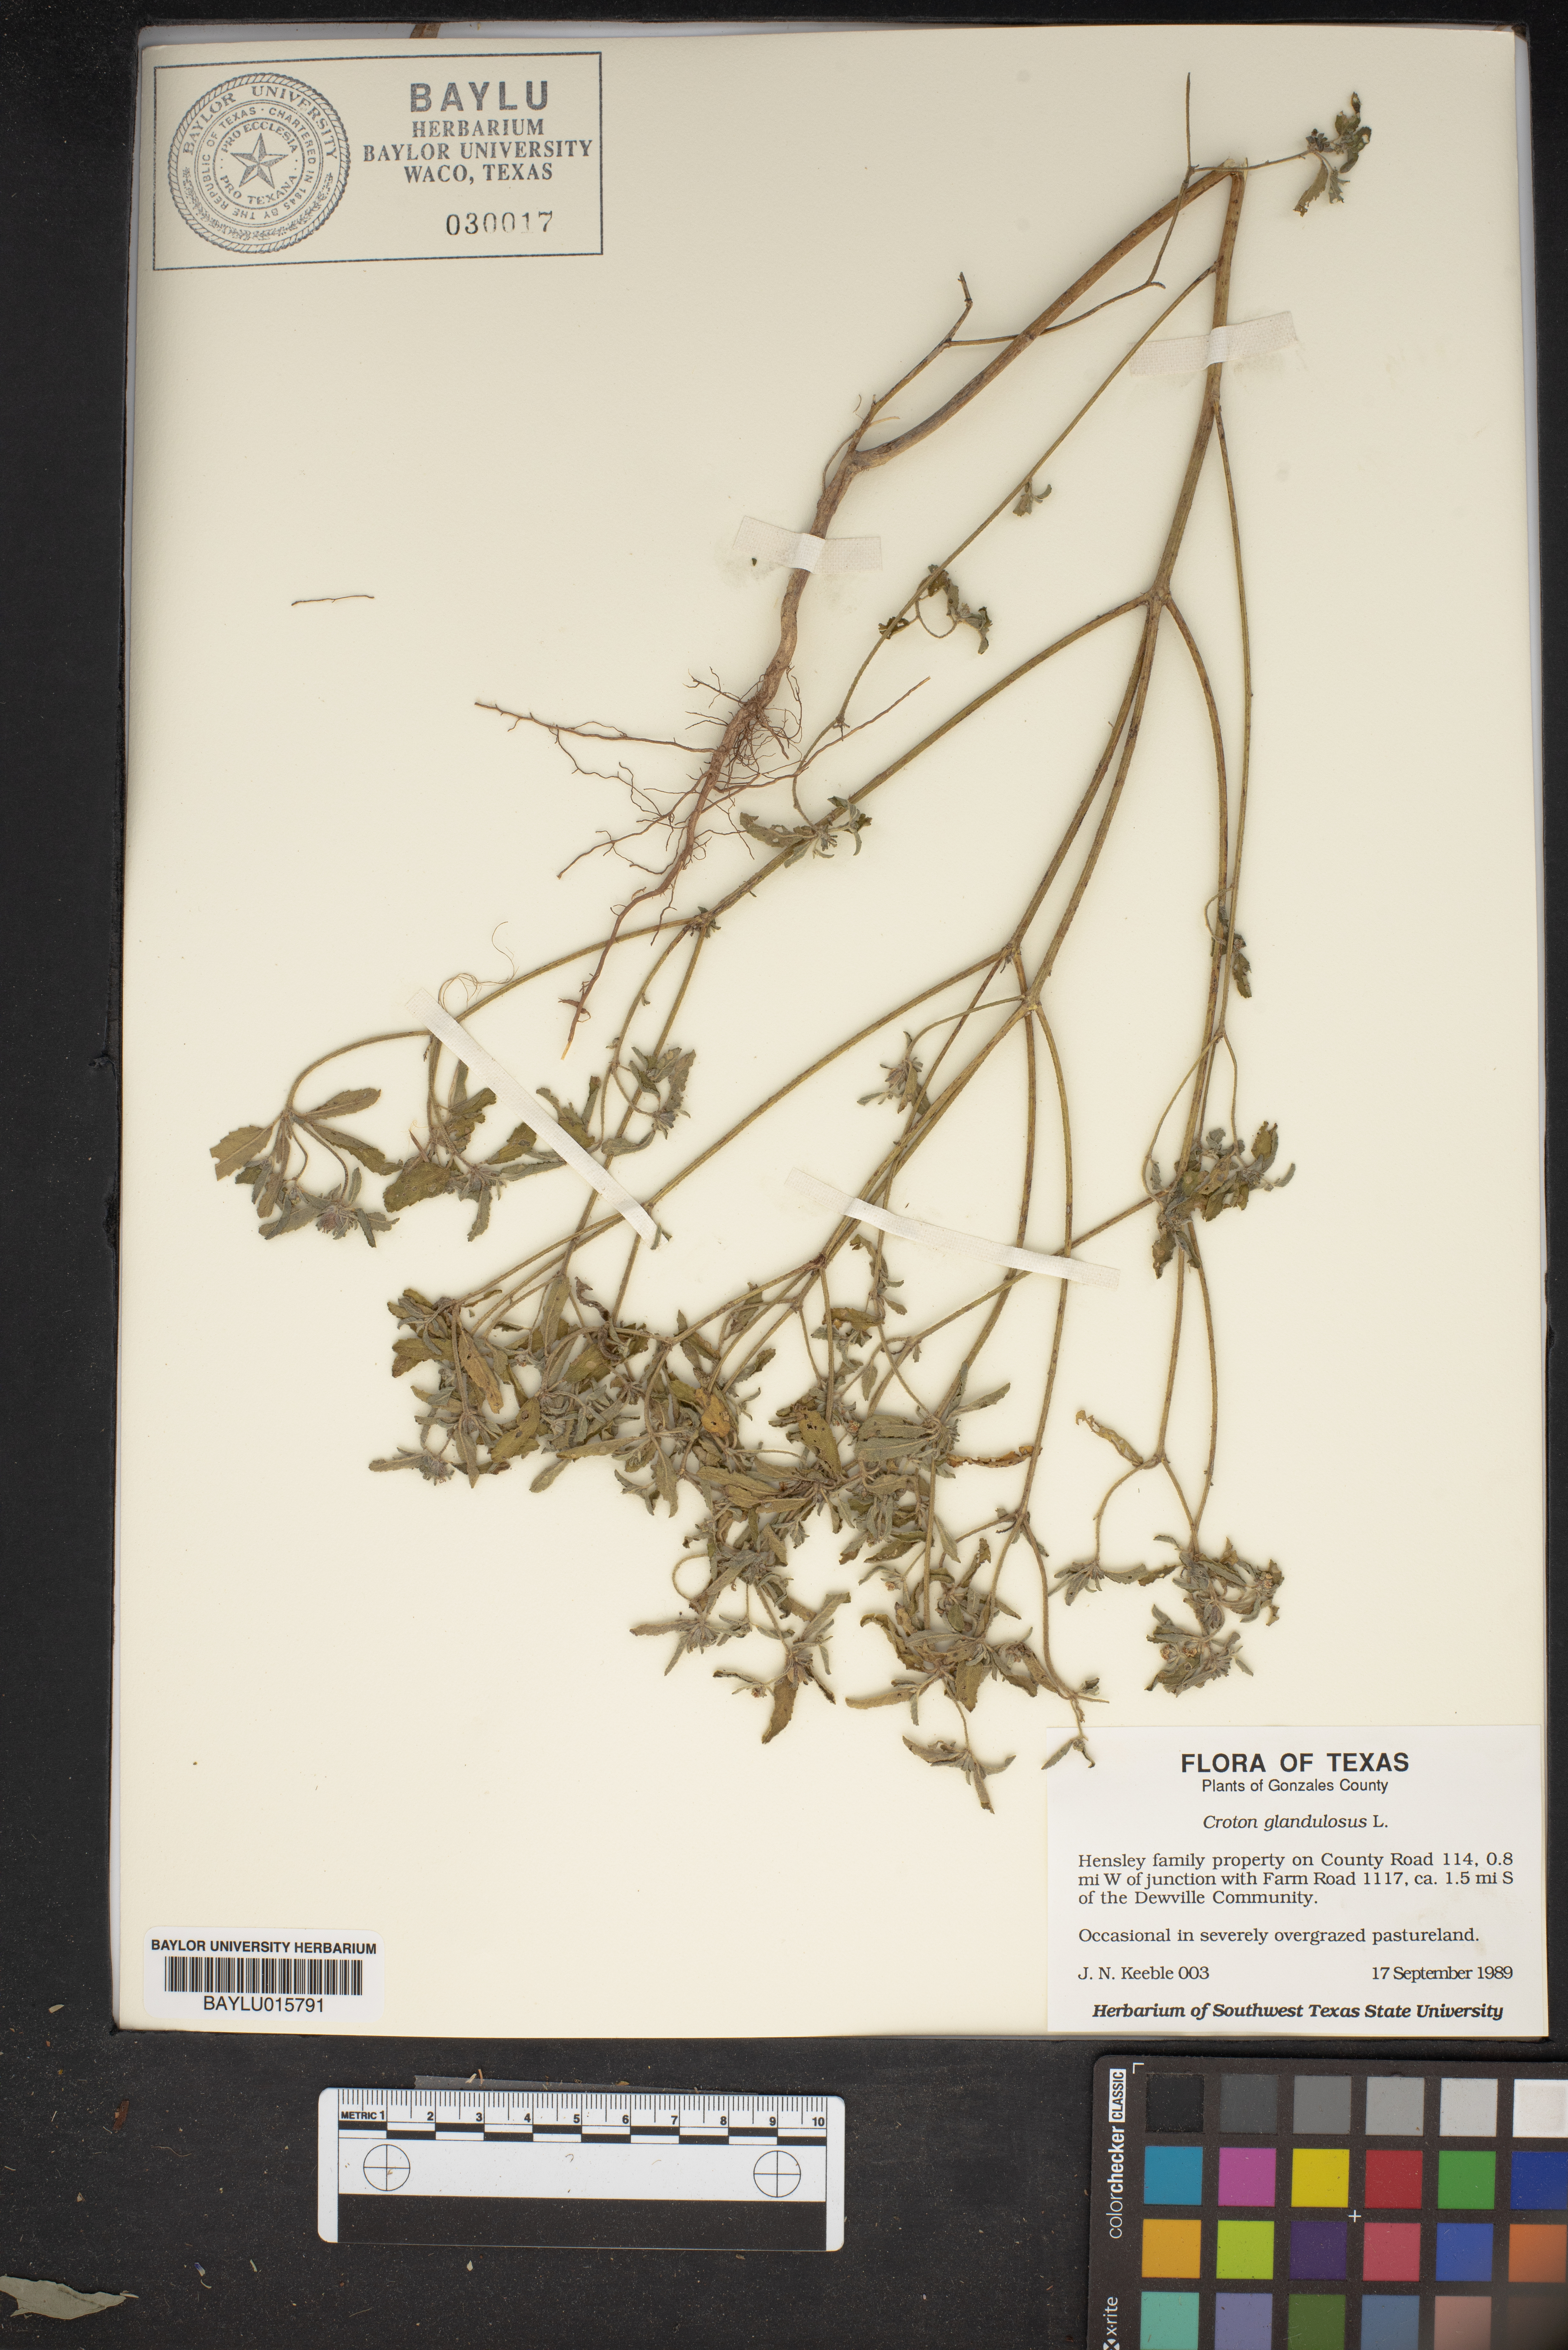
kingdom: Plantae
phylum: Tracheophyta
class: Magnoliopsida
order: Malpighiales
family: Euphorbiaceae
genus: Croton
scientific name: Croton glandulosus
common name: Tropic croton
